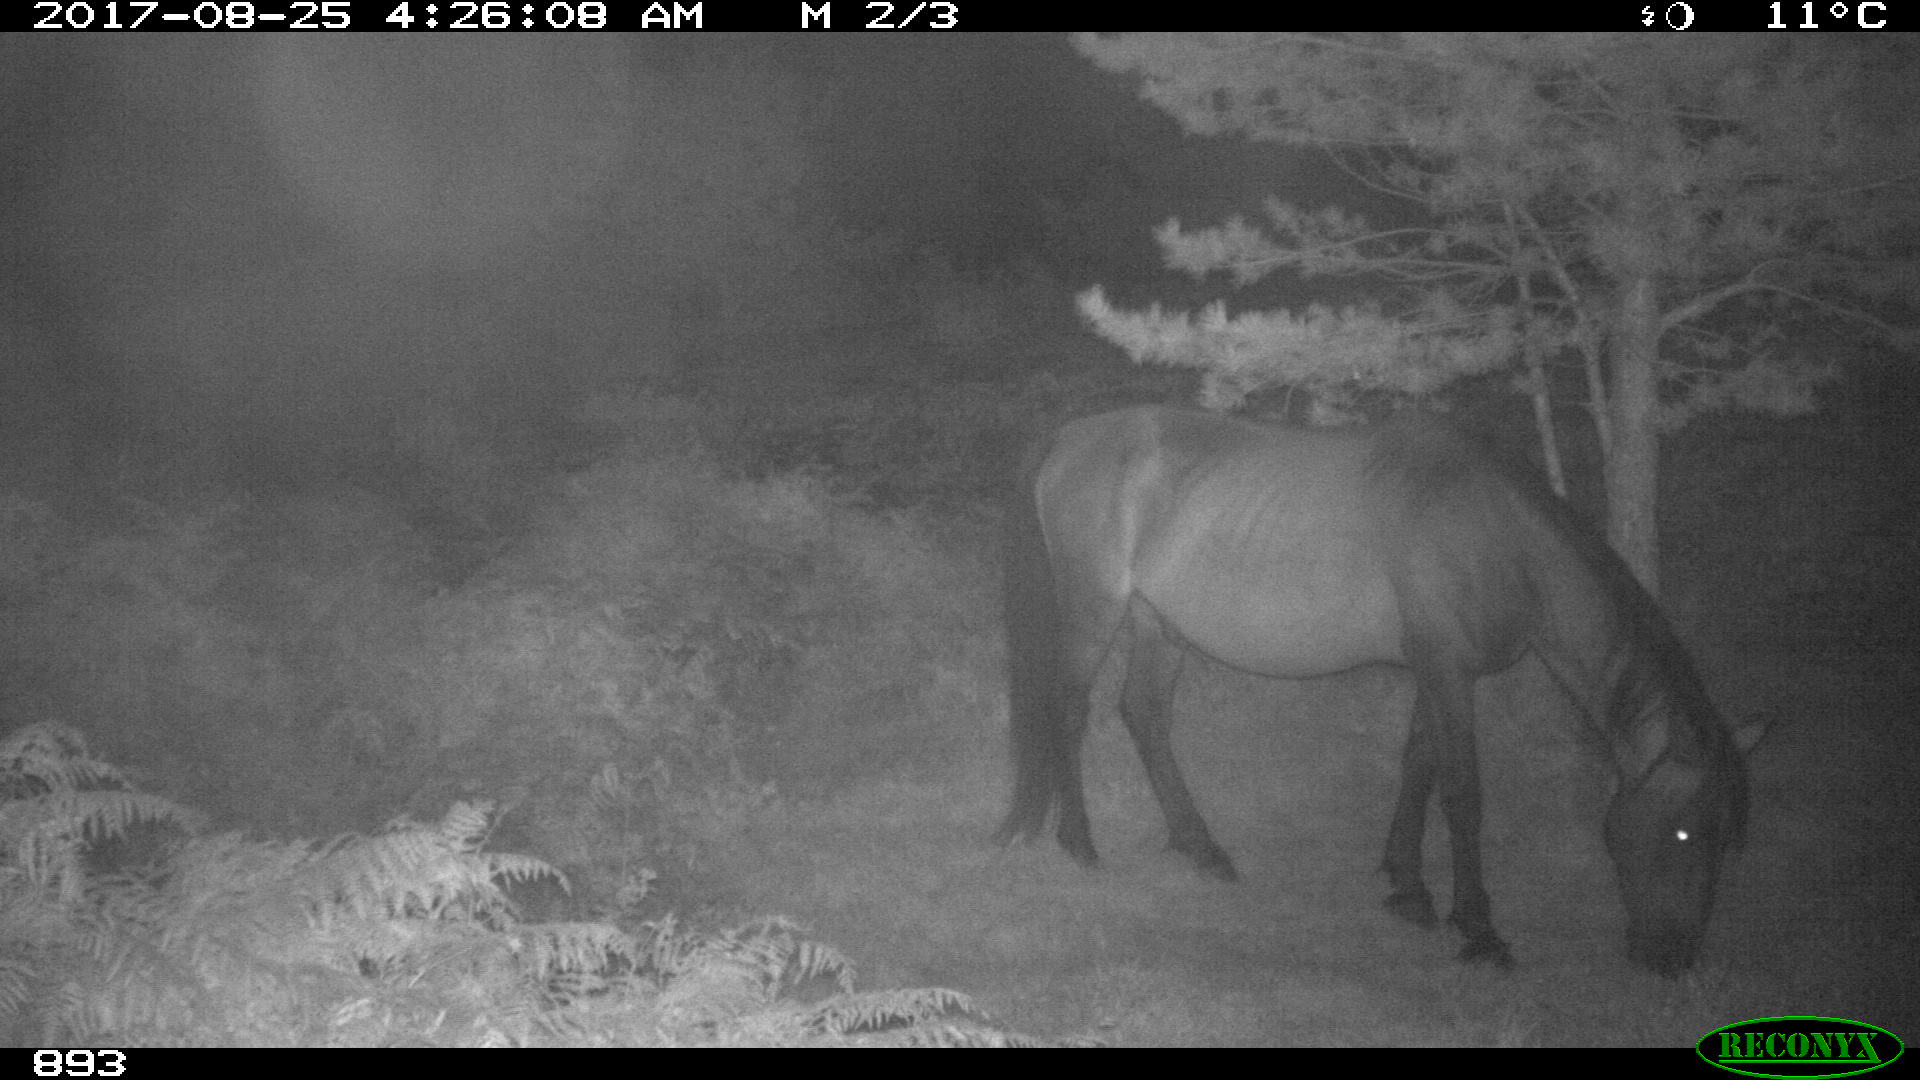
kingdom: Animalia
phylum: Chordata
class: Mammalia
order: Perissodactyla
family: Equidae
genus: Equus
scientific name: Equus caballus
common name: Horse
